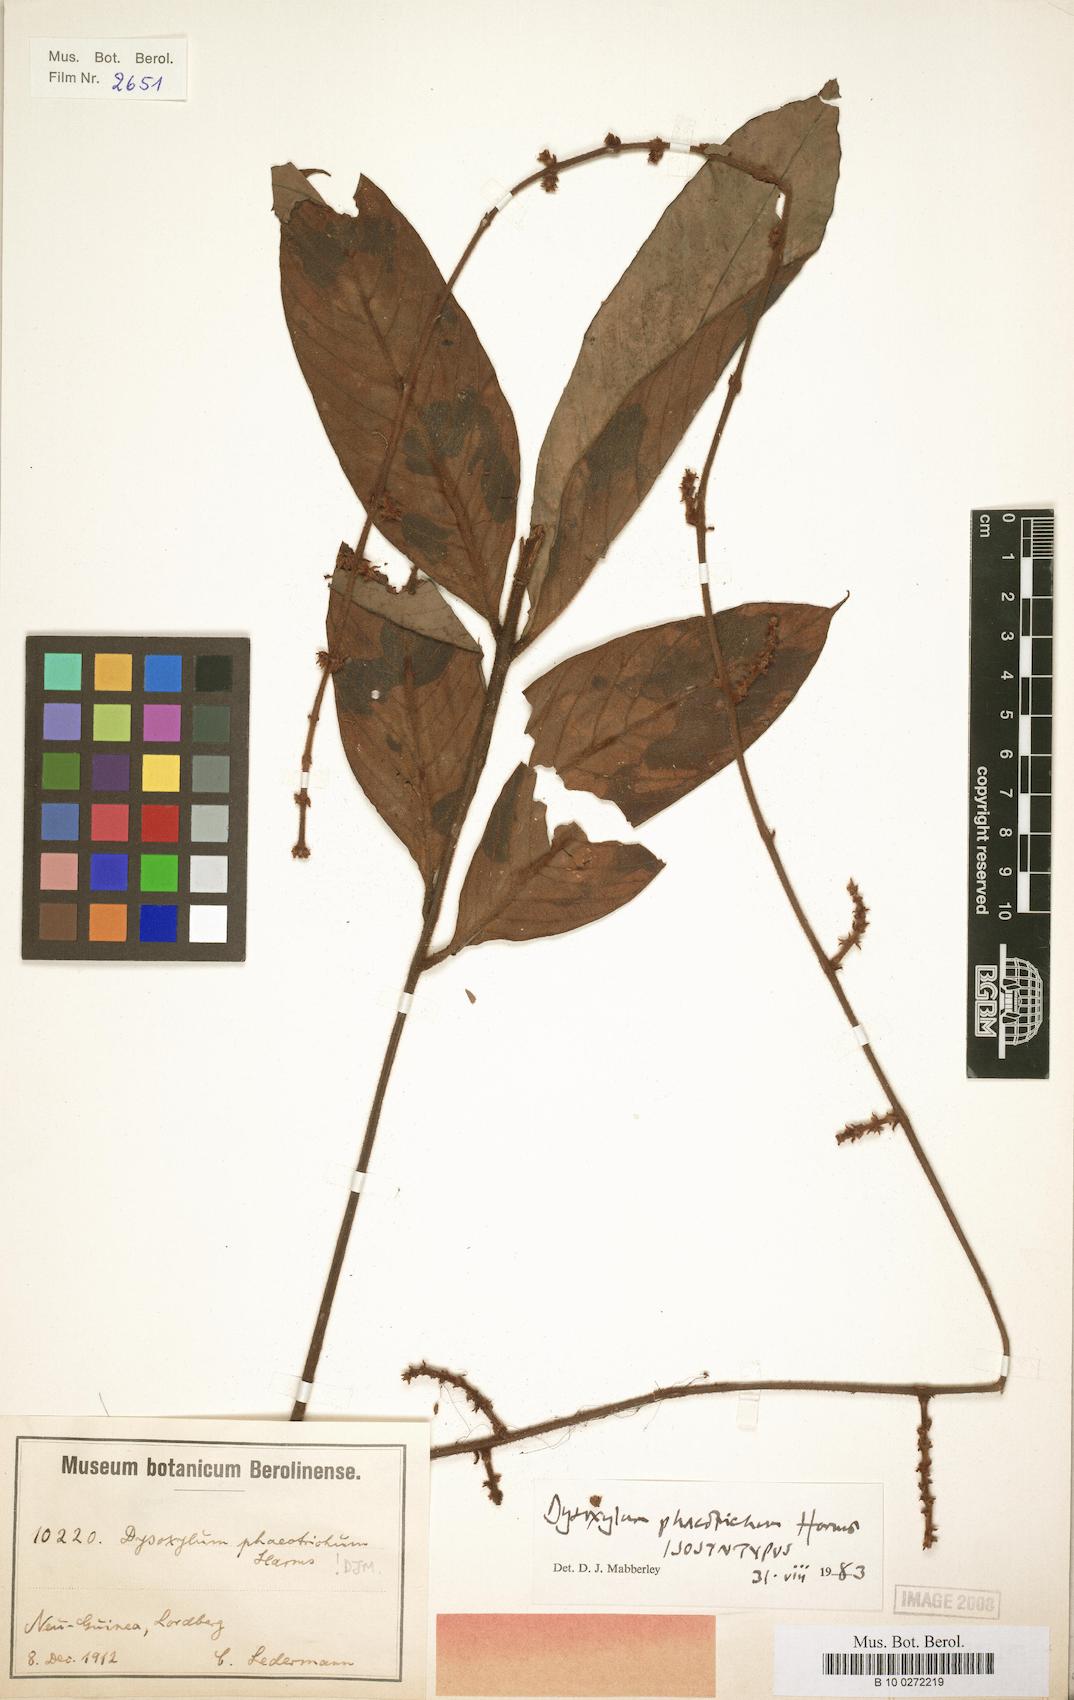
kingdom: Plantae
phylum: Tracheophyta
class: Magnoliopsida
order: Sapindales
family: Meliaceae
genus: Didymocheton
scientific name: Didymocheton phaeotrichus
